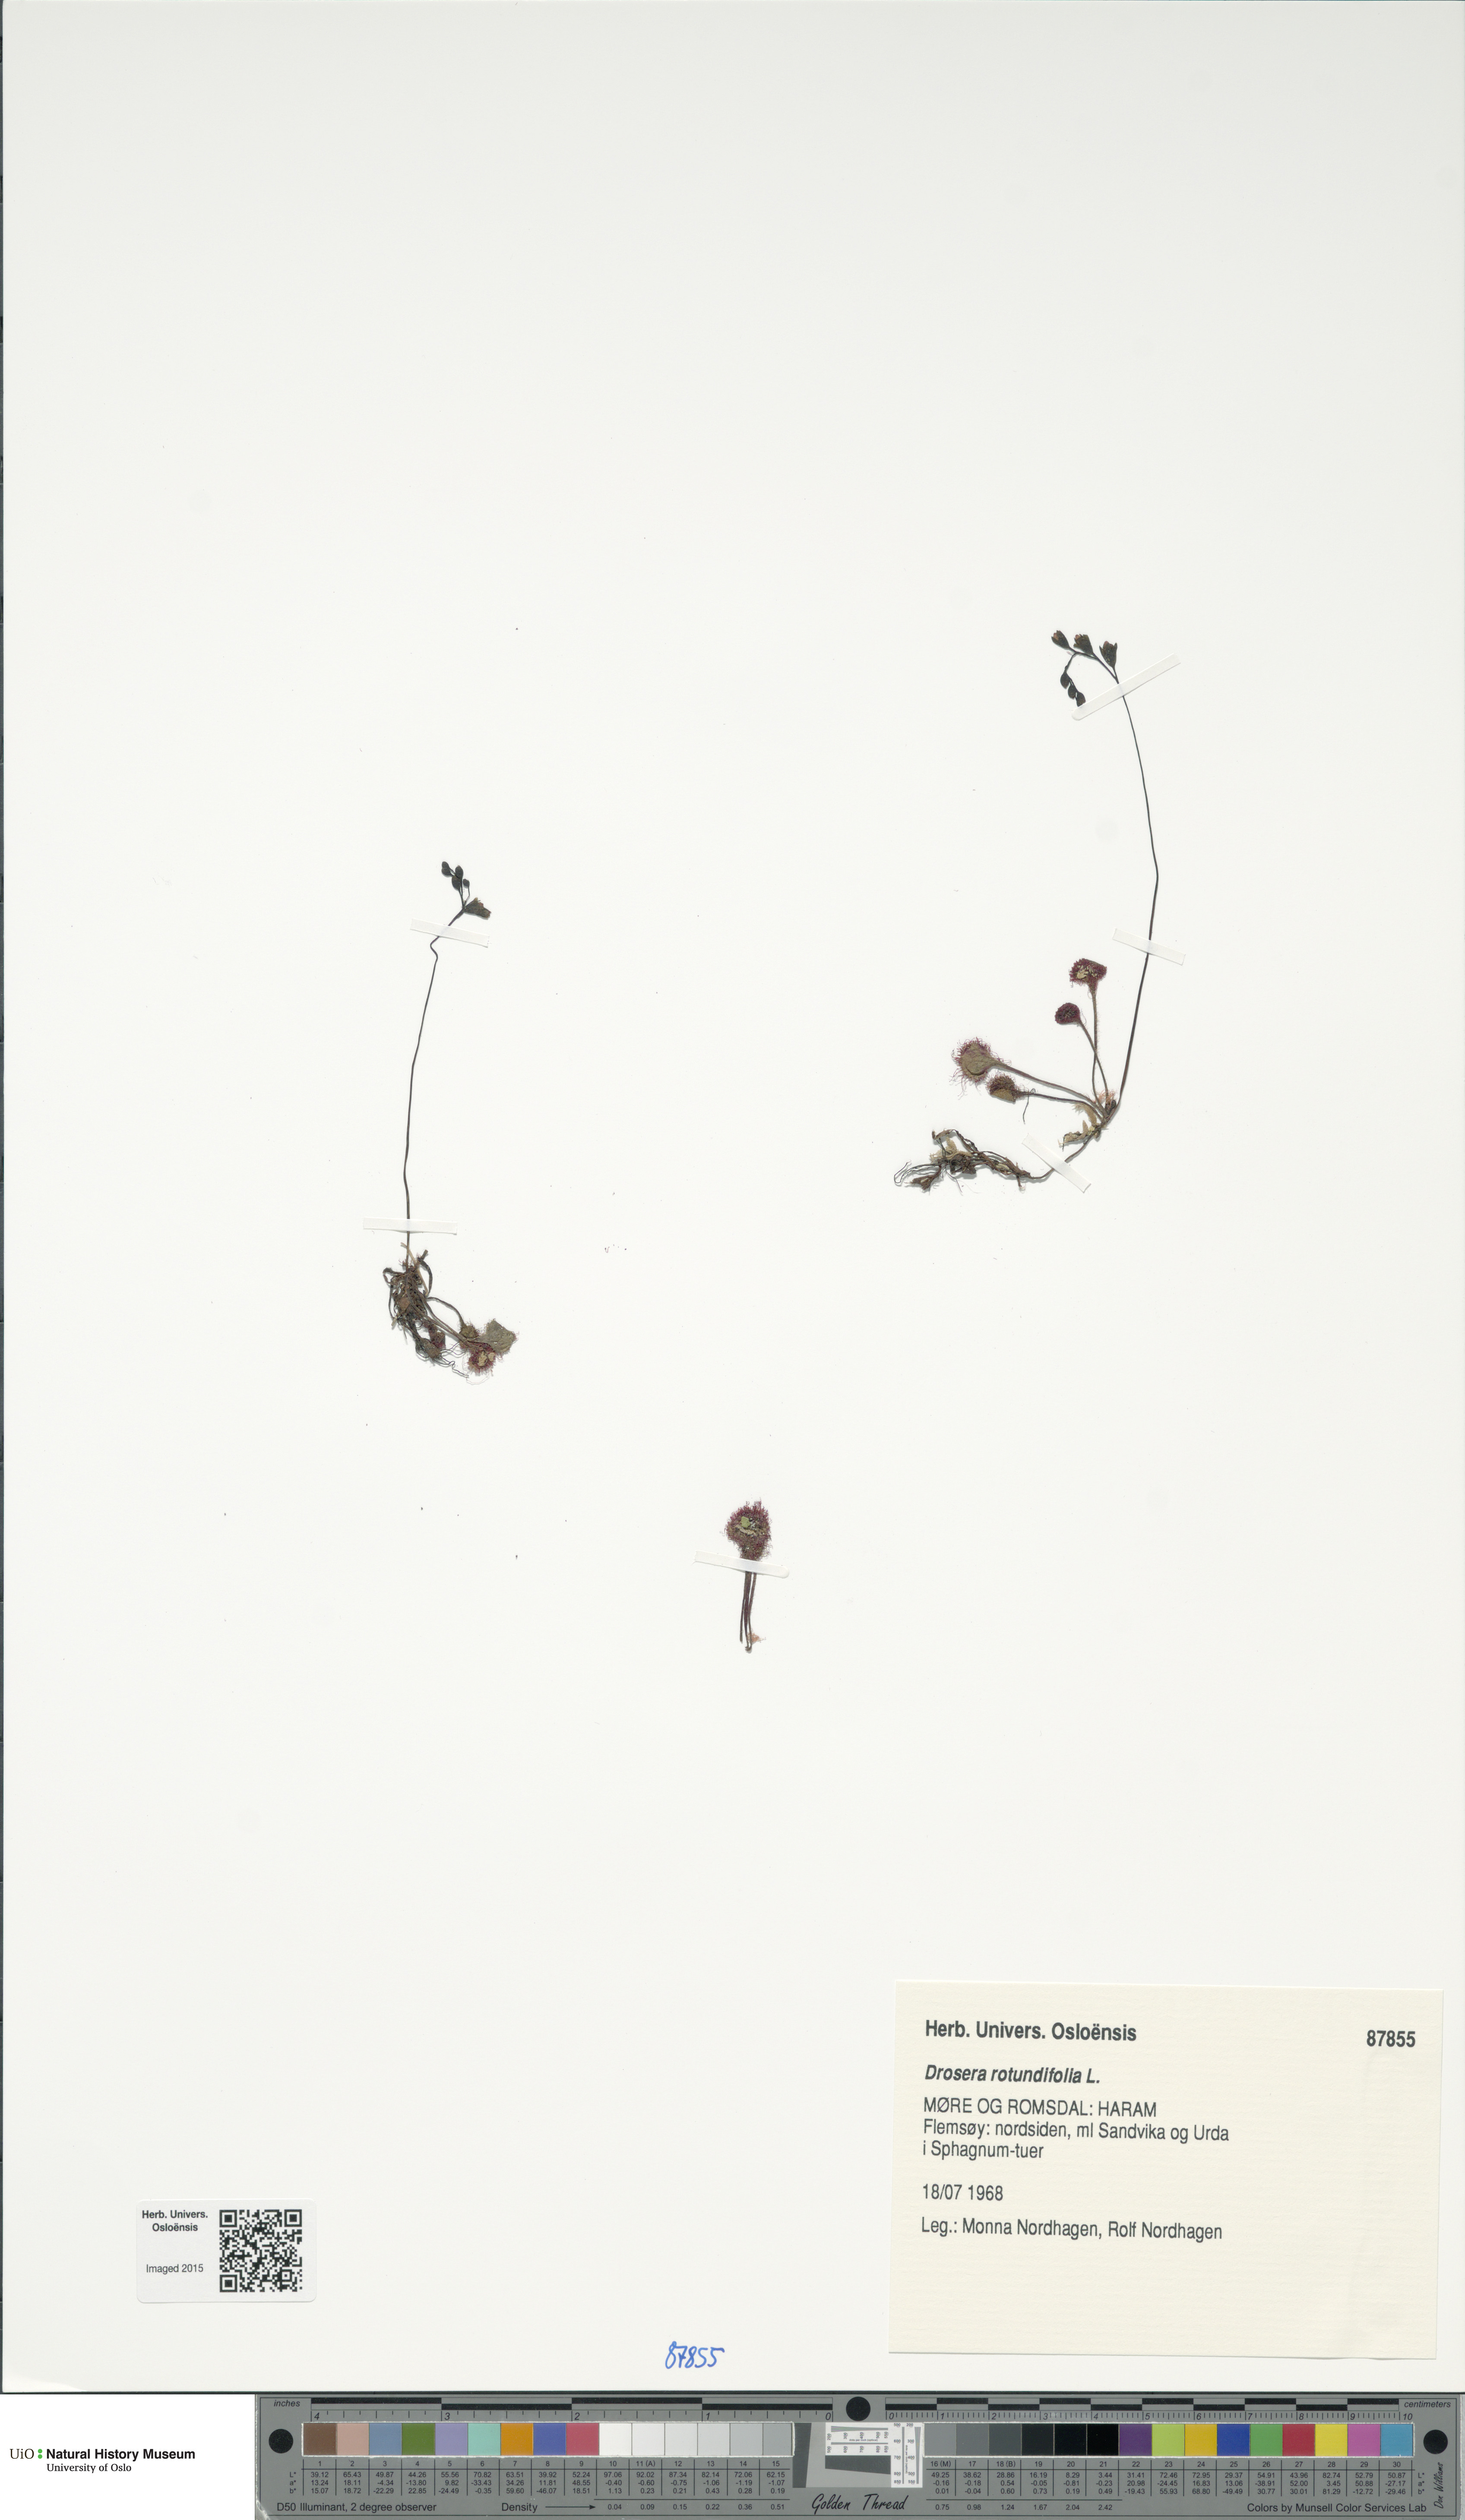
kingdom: Plantae
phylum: Tracheophyta
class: Magnoliopsida
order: Caryophyllales
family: Droseraceae
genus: Drosera
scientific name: Drosera rotundifolia
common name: Round-leaved sundew
